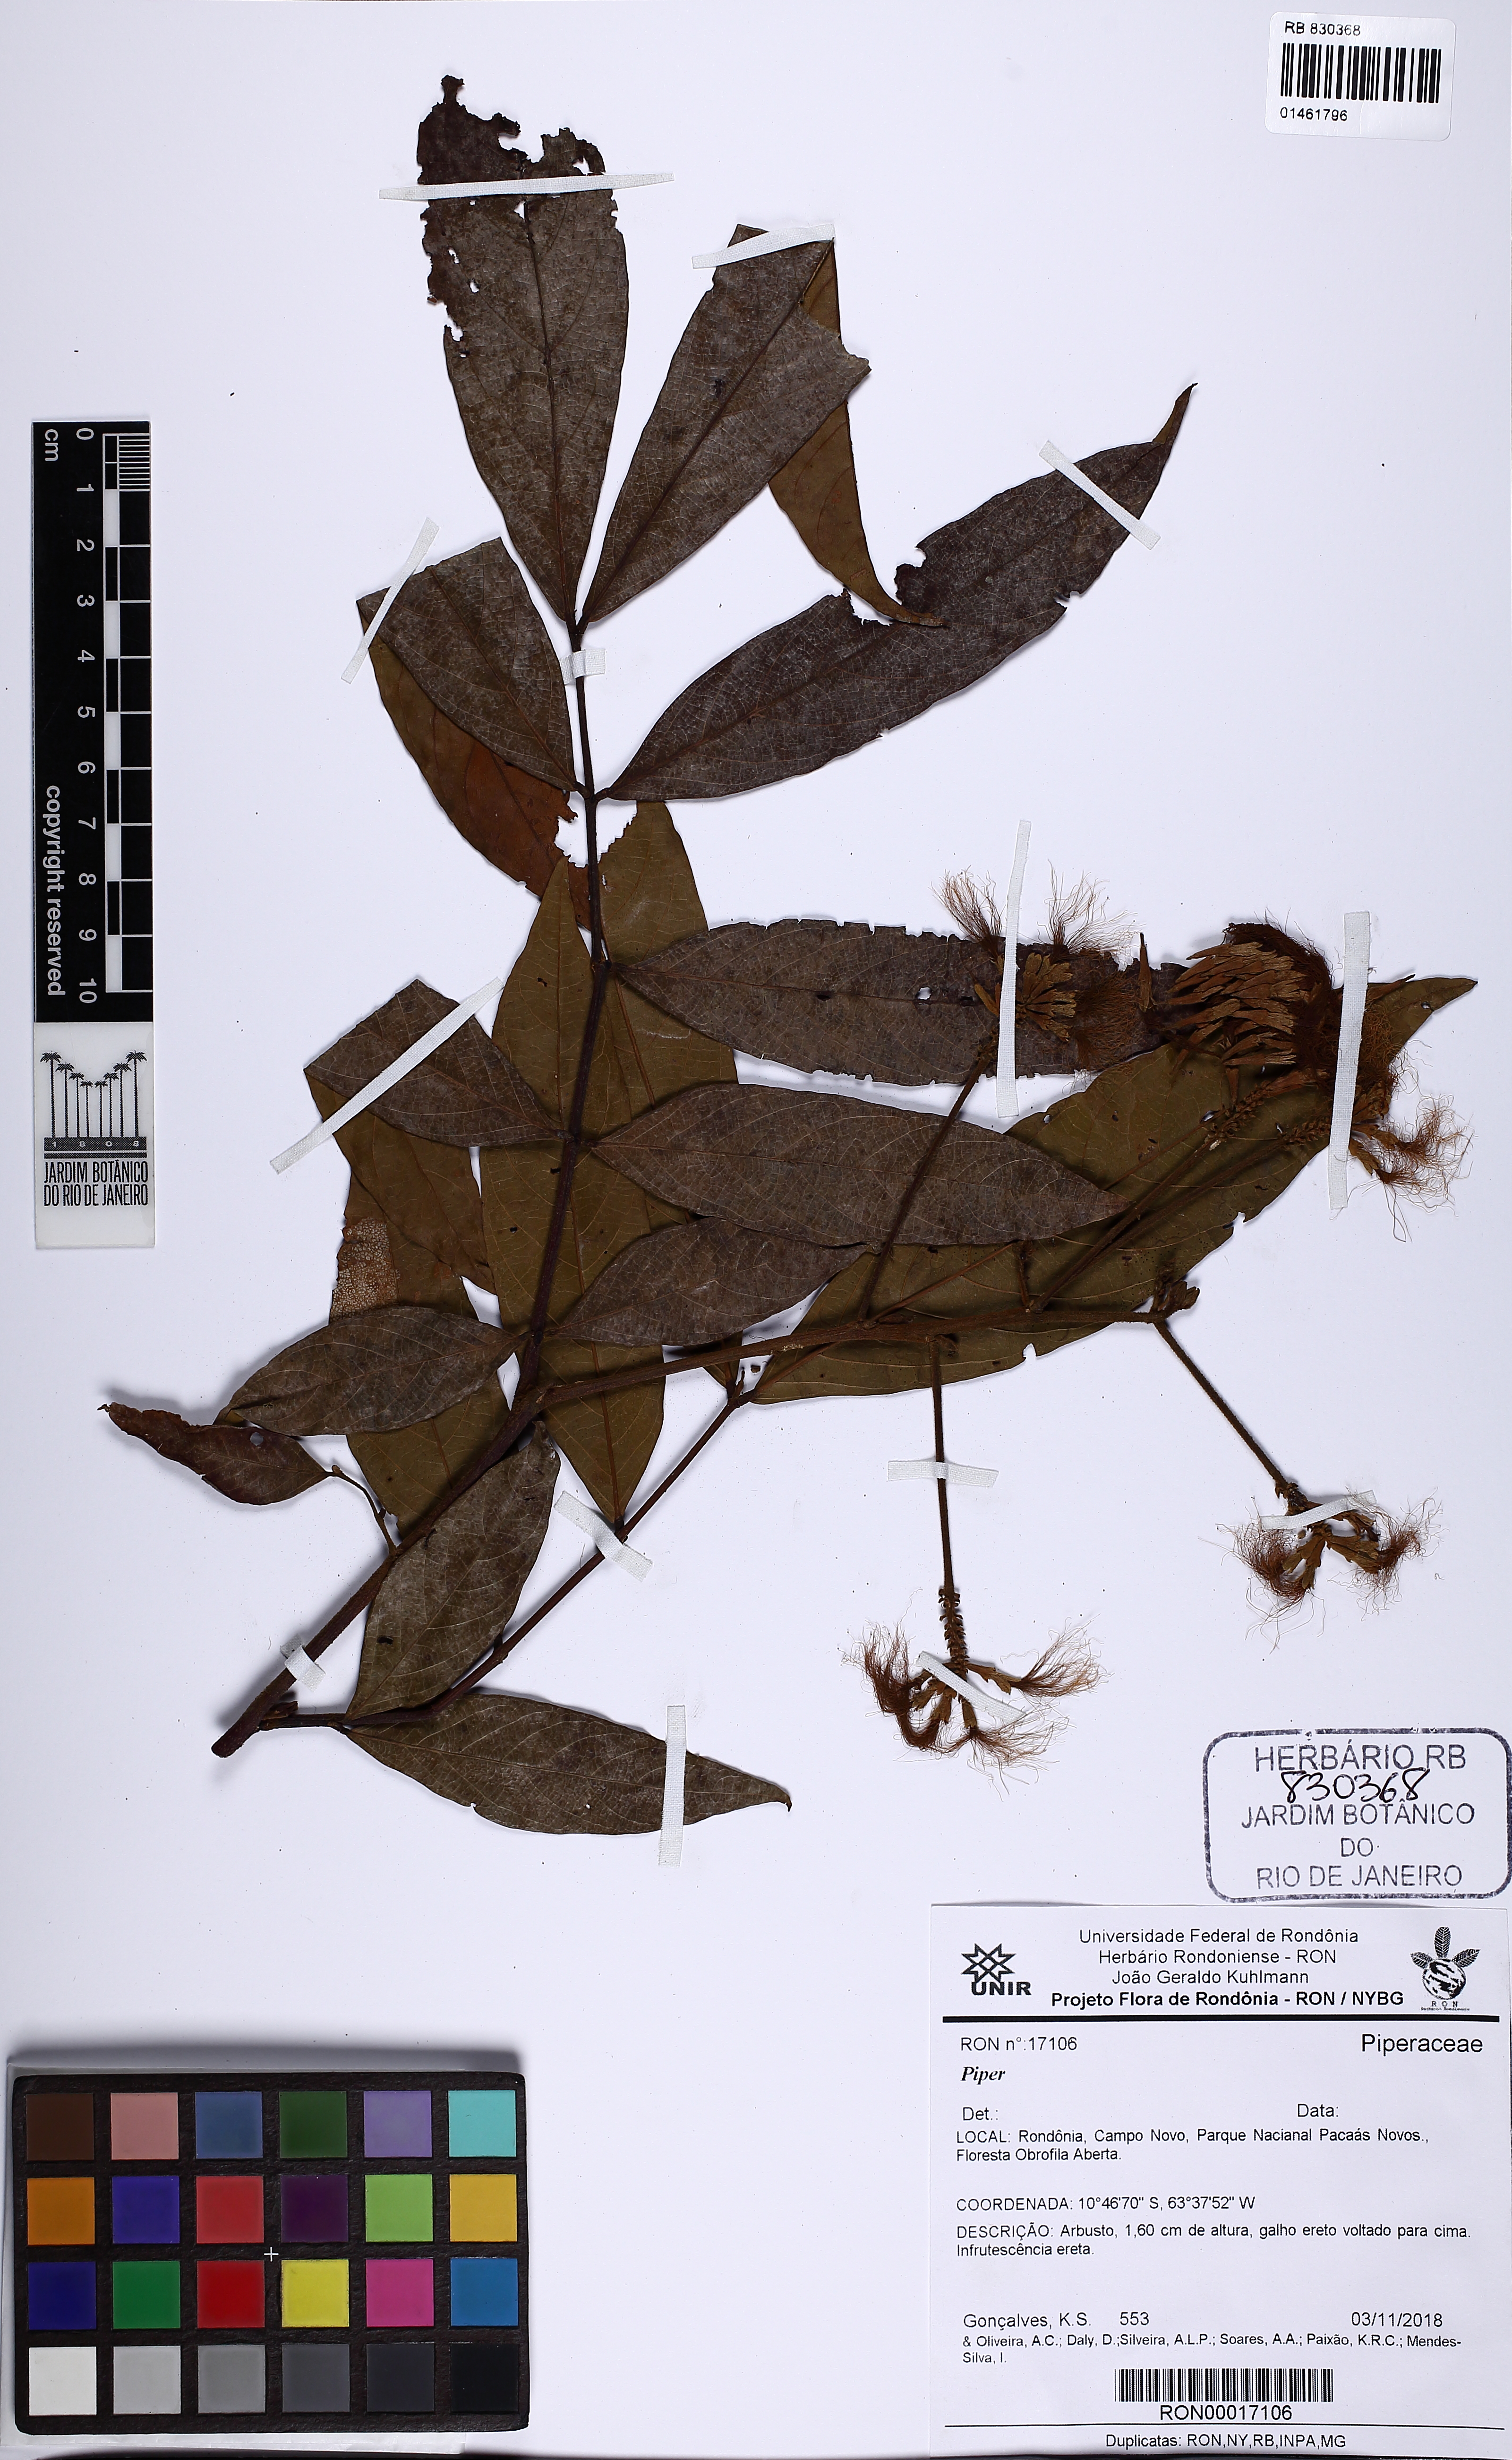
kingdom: Plantae
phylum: Tracheophyta
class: Magnoliopsida
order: Piperales
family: Piperaceae
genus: Piper
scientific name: Piper
